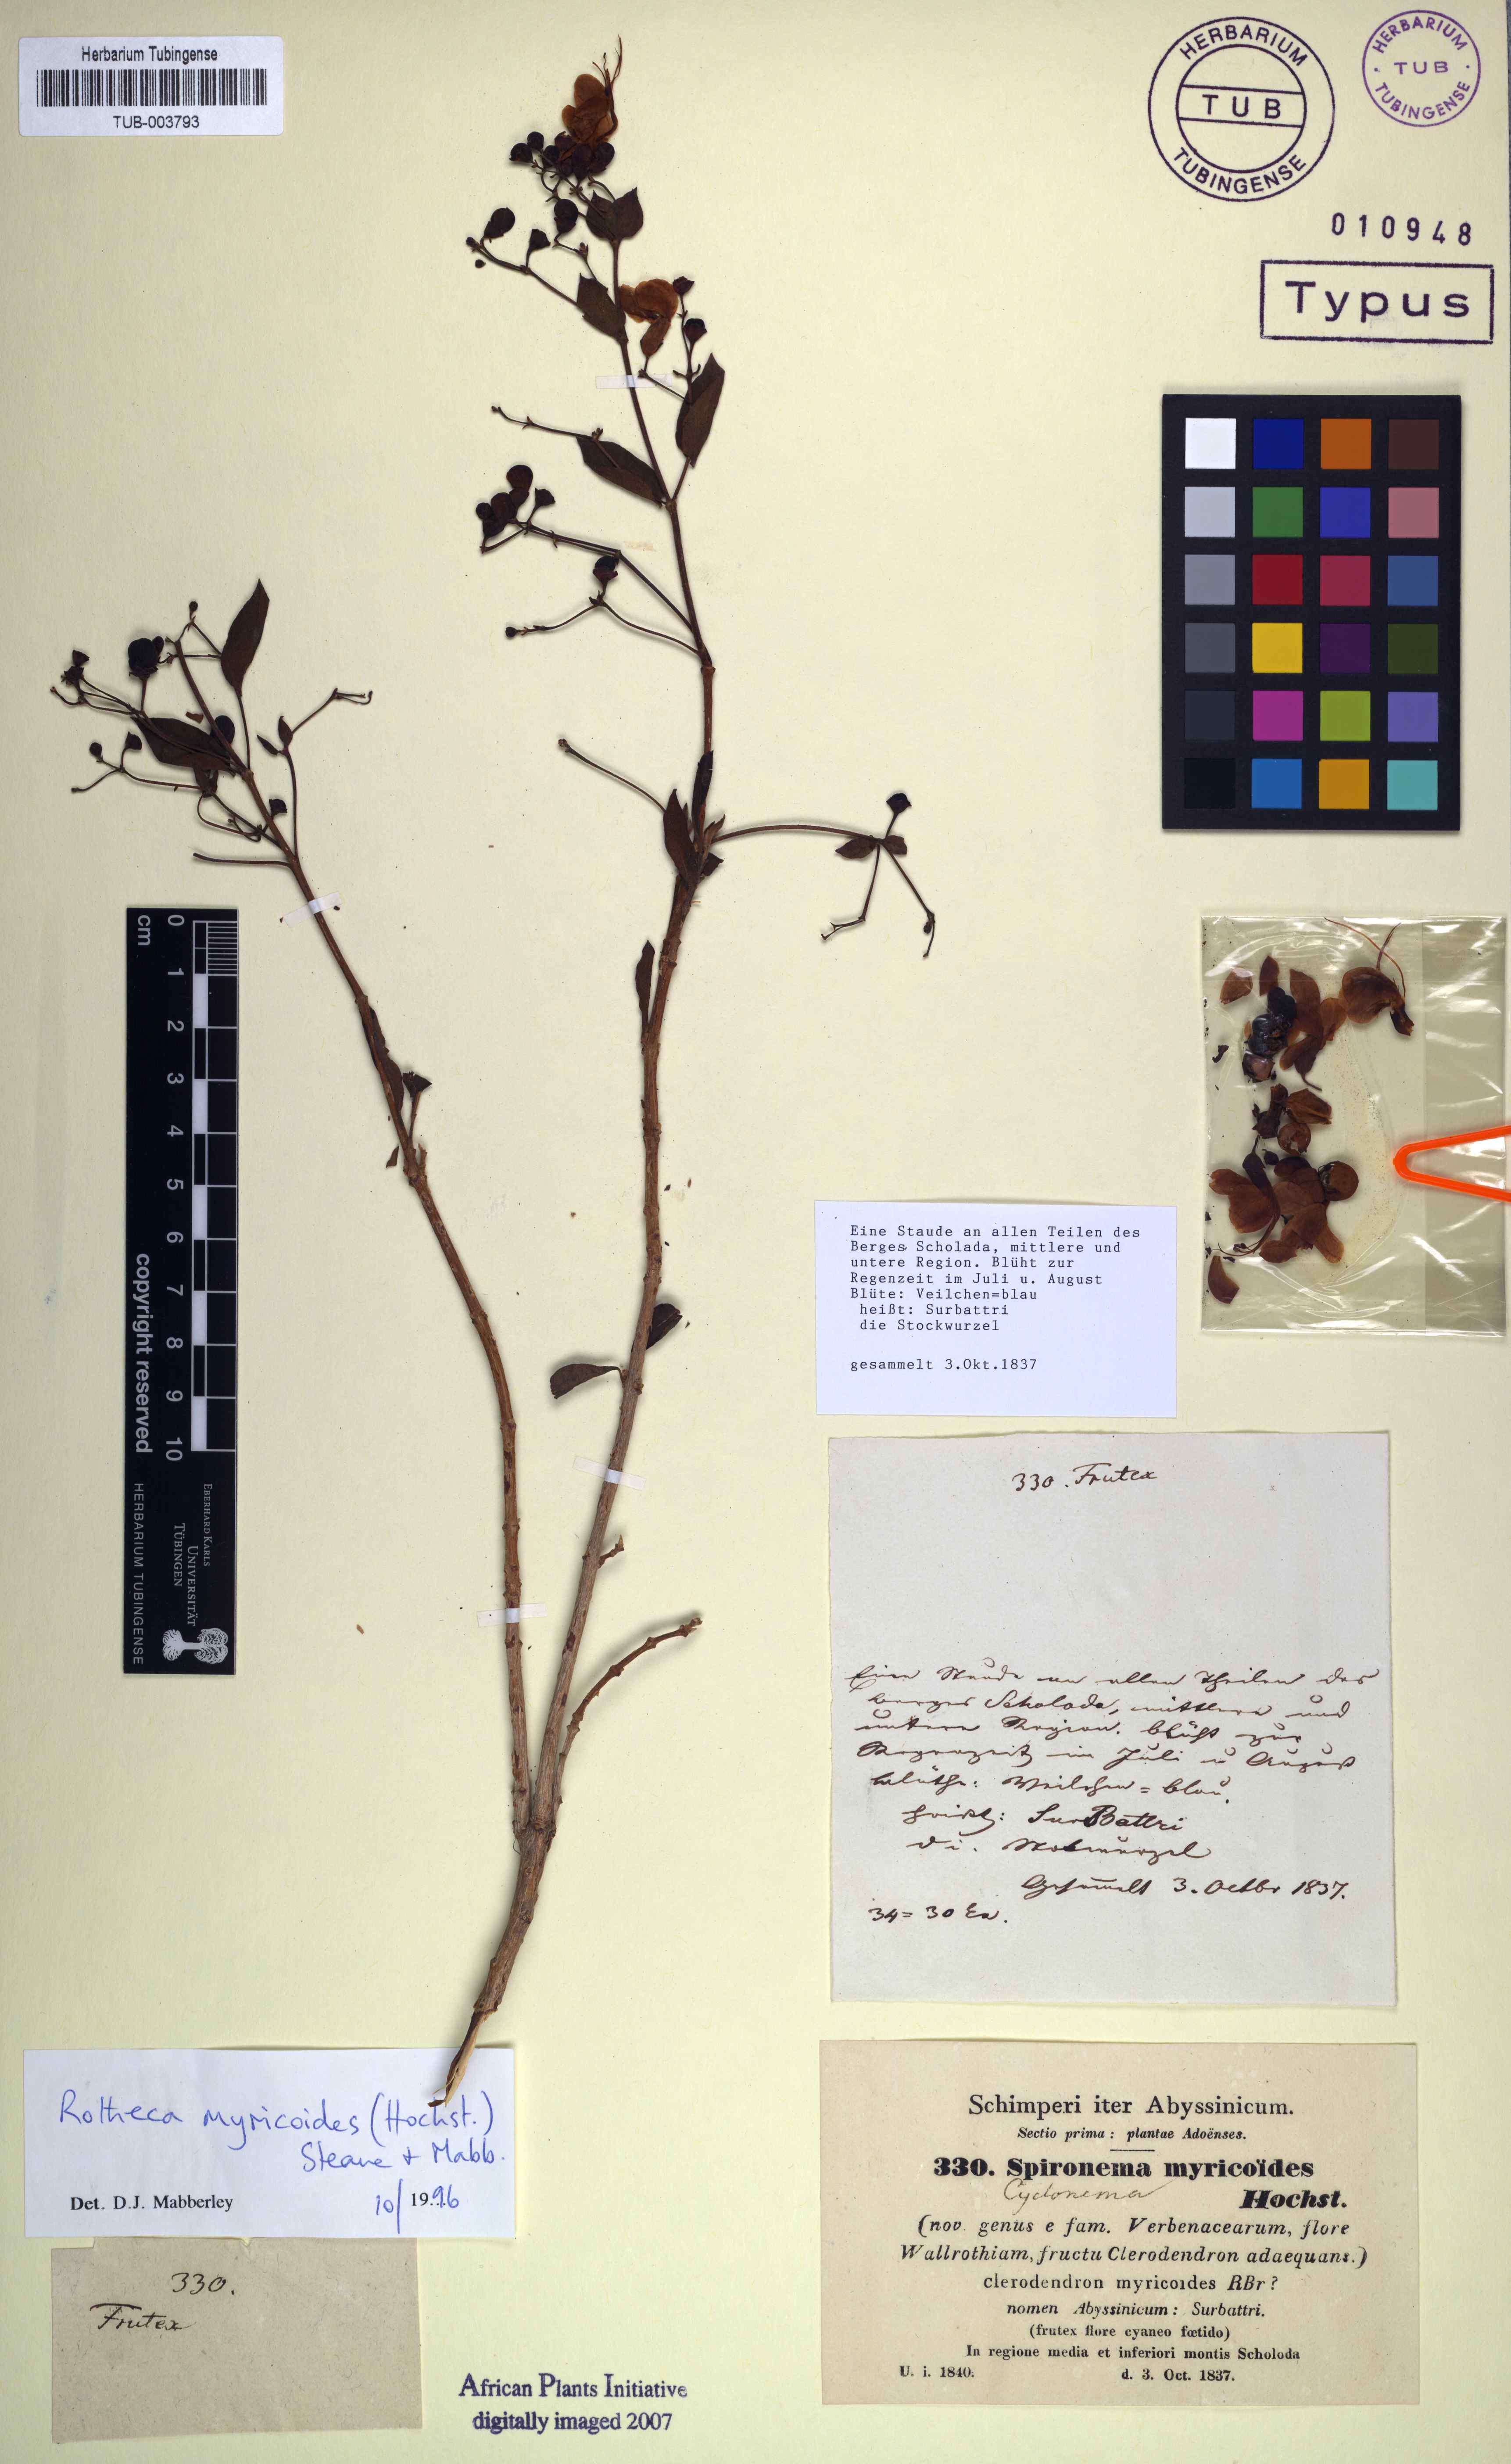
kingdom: Plantae
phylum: Tracheophyta
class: Magnoliopsida
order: Lamiales
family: Lamiaceae
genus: Rotheca
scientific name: Rotheca myricoides
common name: Cats-whiskers
